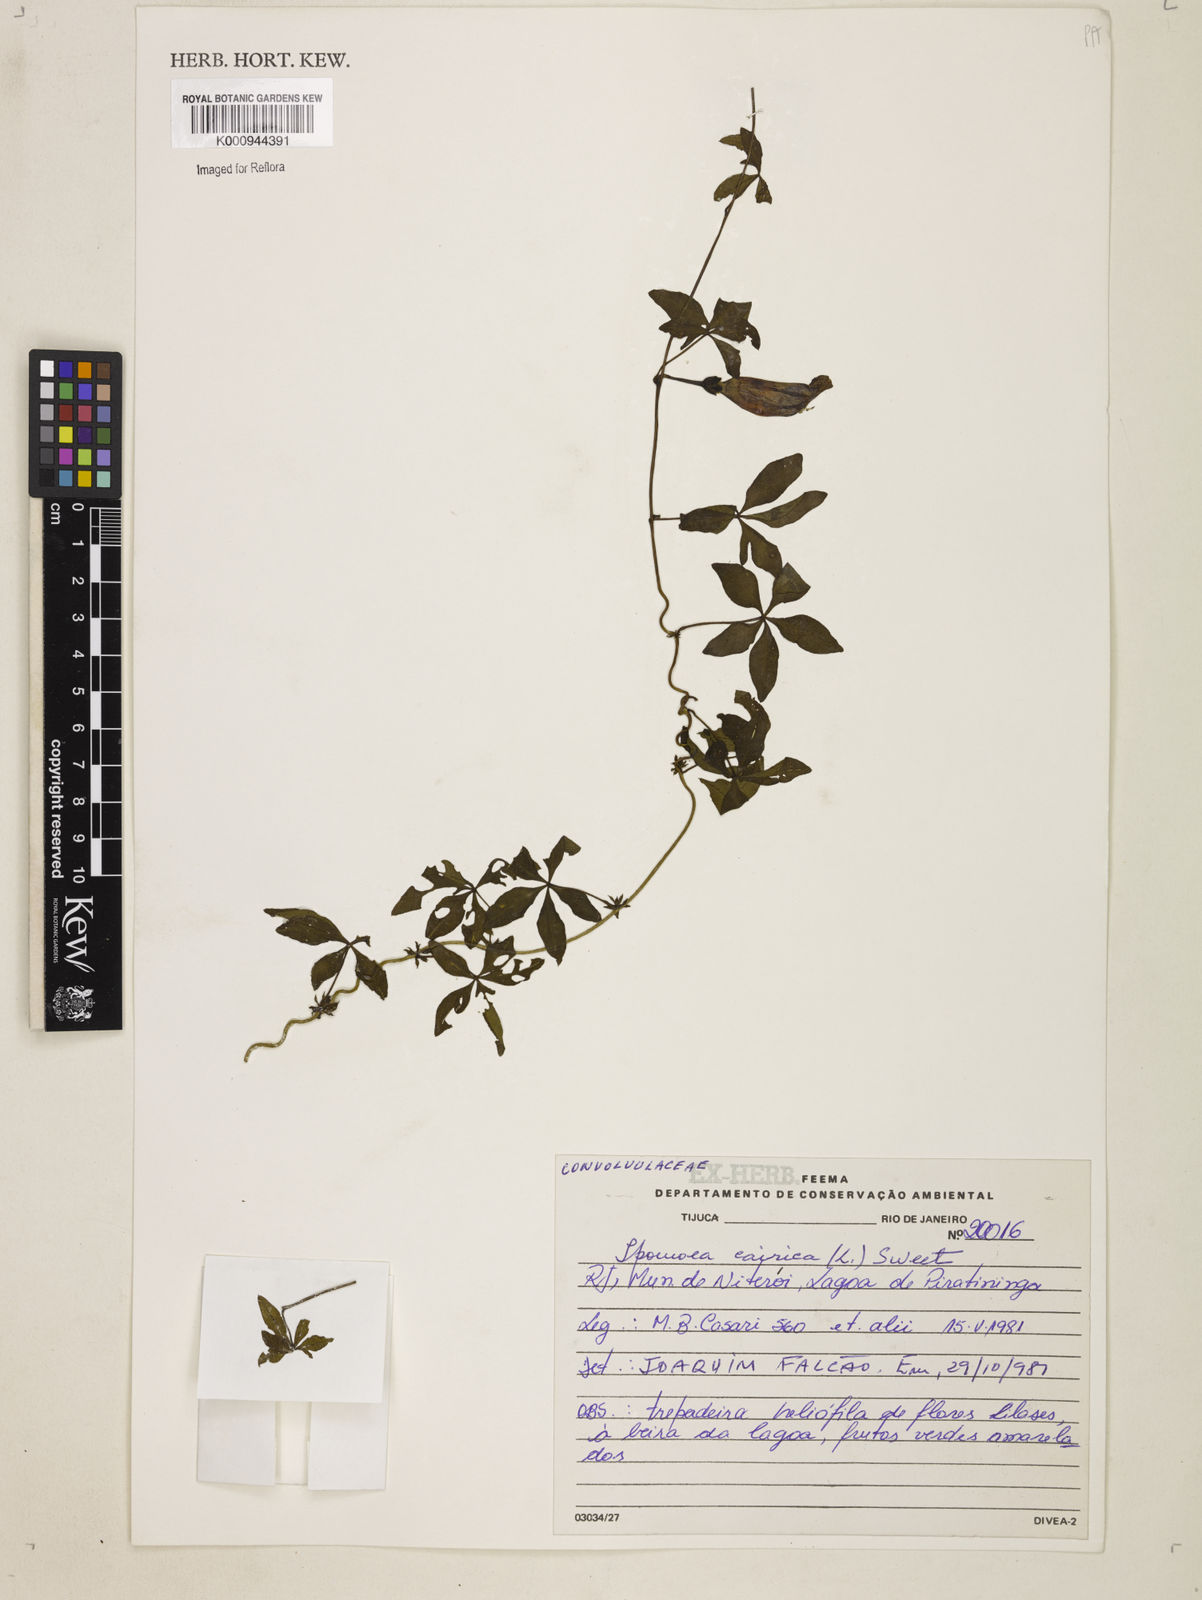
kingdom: Plantae
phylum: Tracheophyta
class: Magnoliopsida
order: Solanales
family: Convolvulaceae
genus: Ipomoea
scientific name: Ipomoea cairica
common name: Mile a minute vine
